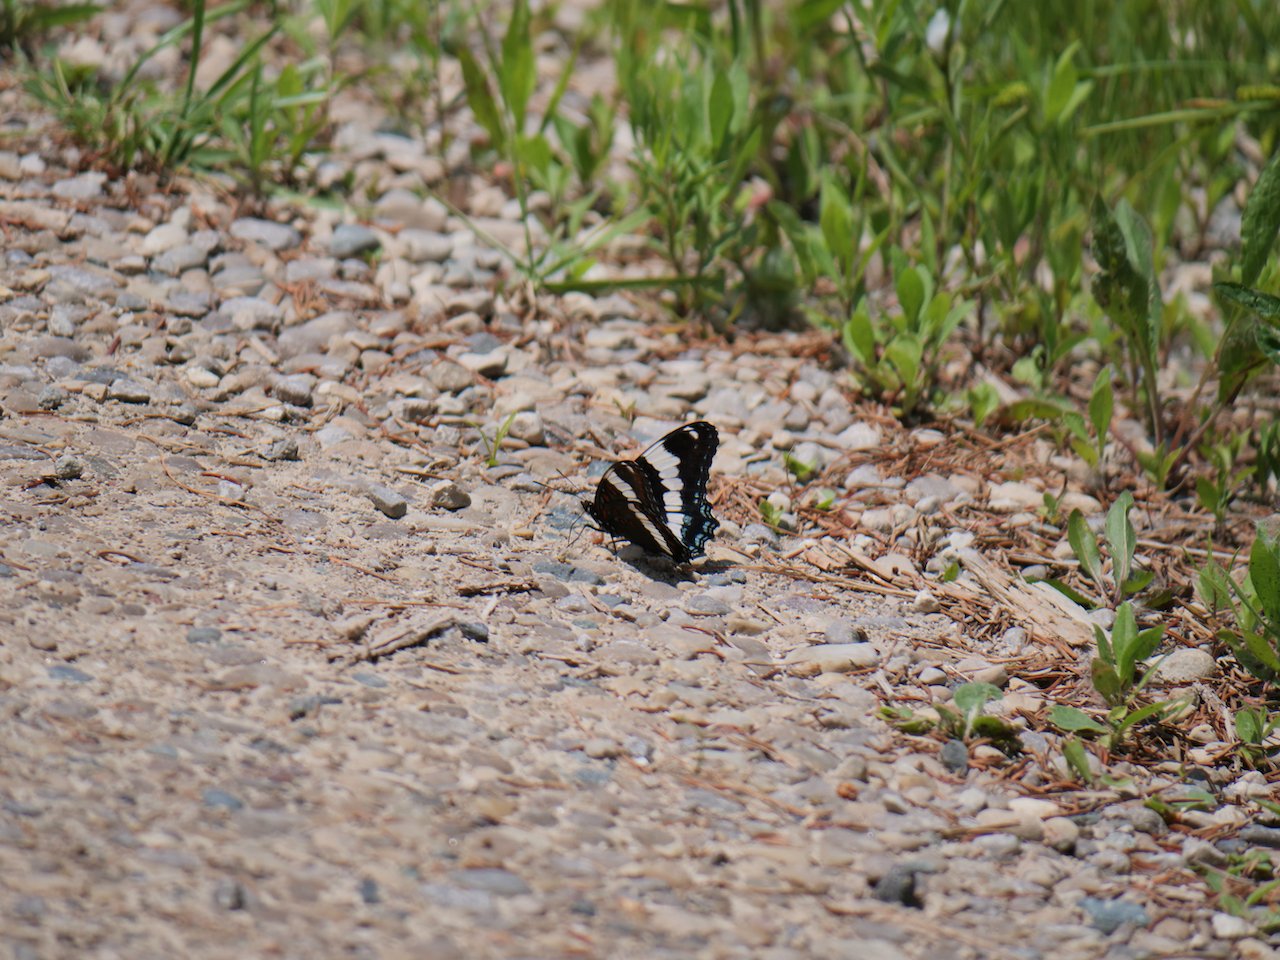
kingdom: Animalia
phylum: Arthropoda
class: Insecta
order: Lepidoptera
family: Nymphalidae
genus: Limenitis
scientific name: Limenitis arthemis
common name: Red-spotted Admiral
